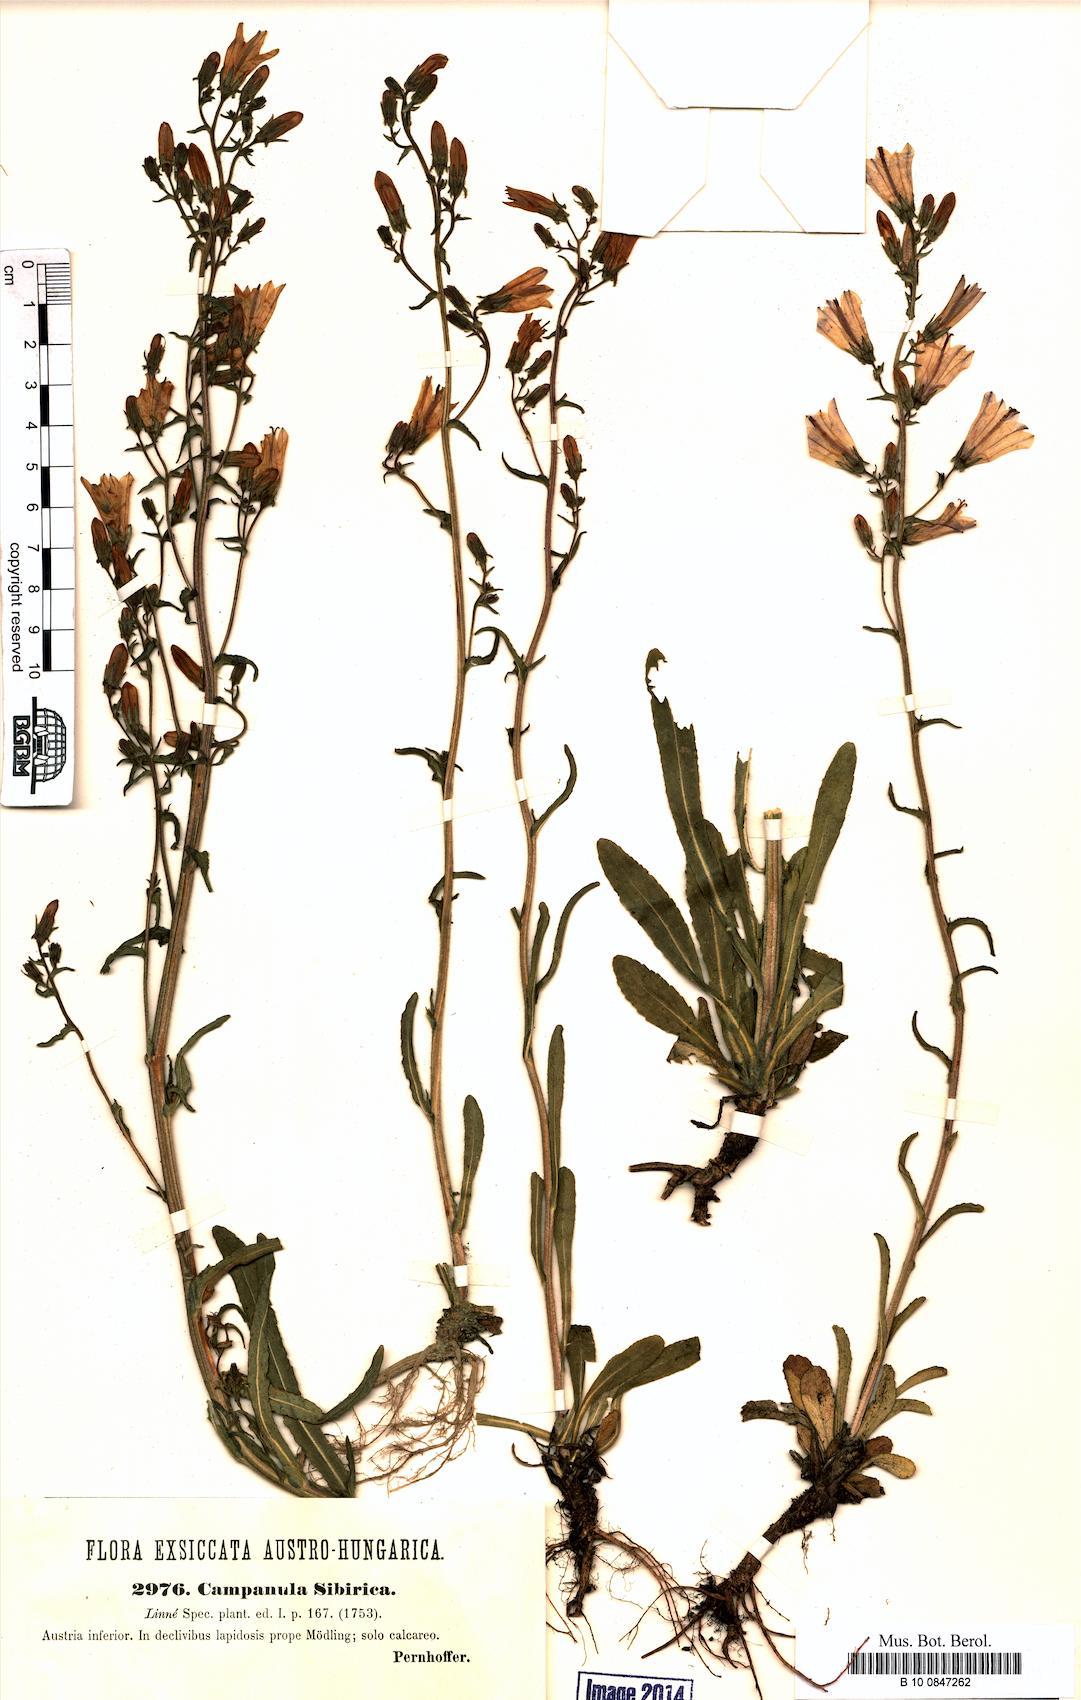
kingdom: Plantae
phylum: Tracheophyta
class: Magnoliopsida
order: Asterales
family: Campanulaceae
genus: Campanula
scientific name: Campanula sibirica
